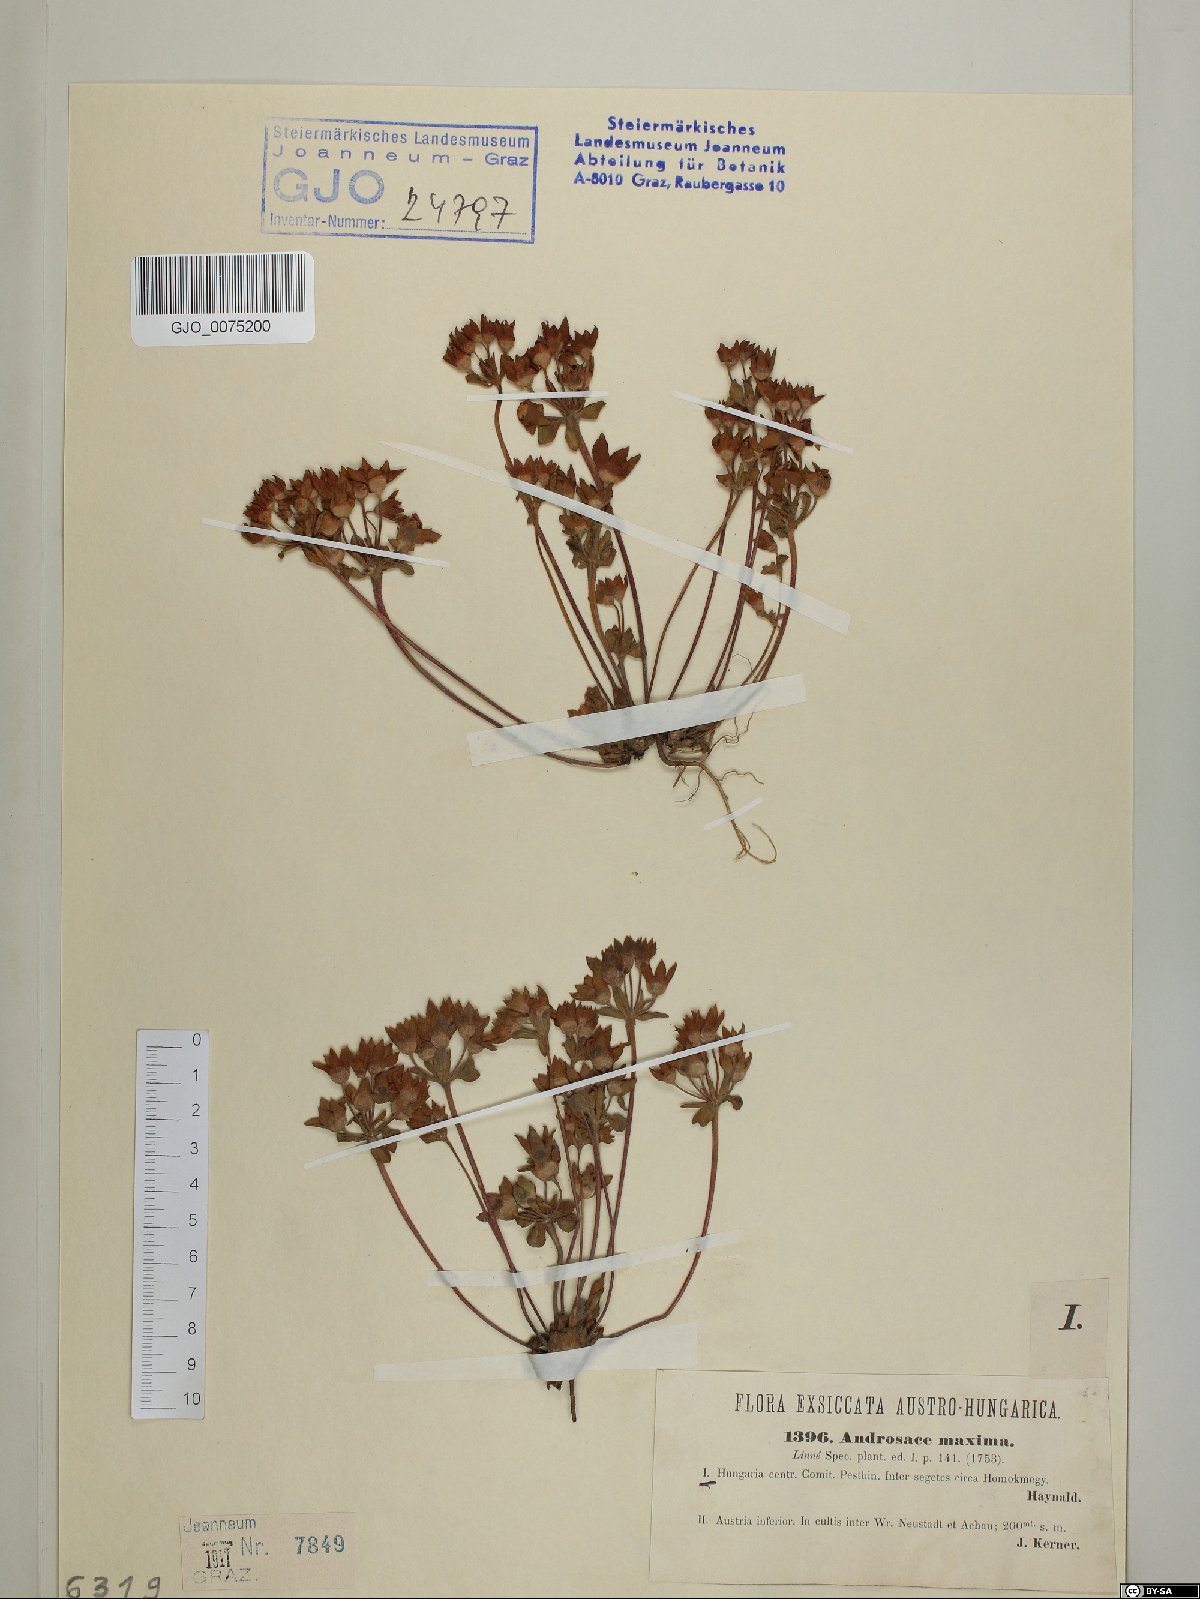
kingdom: Plantae
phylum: Tracheophyta
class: Magnoliopsida
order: Ericales
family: Primulaceae
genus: Androsace
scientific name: Androsace maxima
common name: Annual androsace
